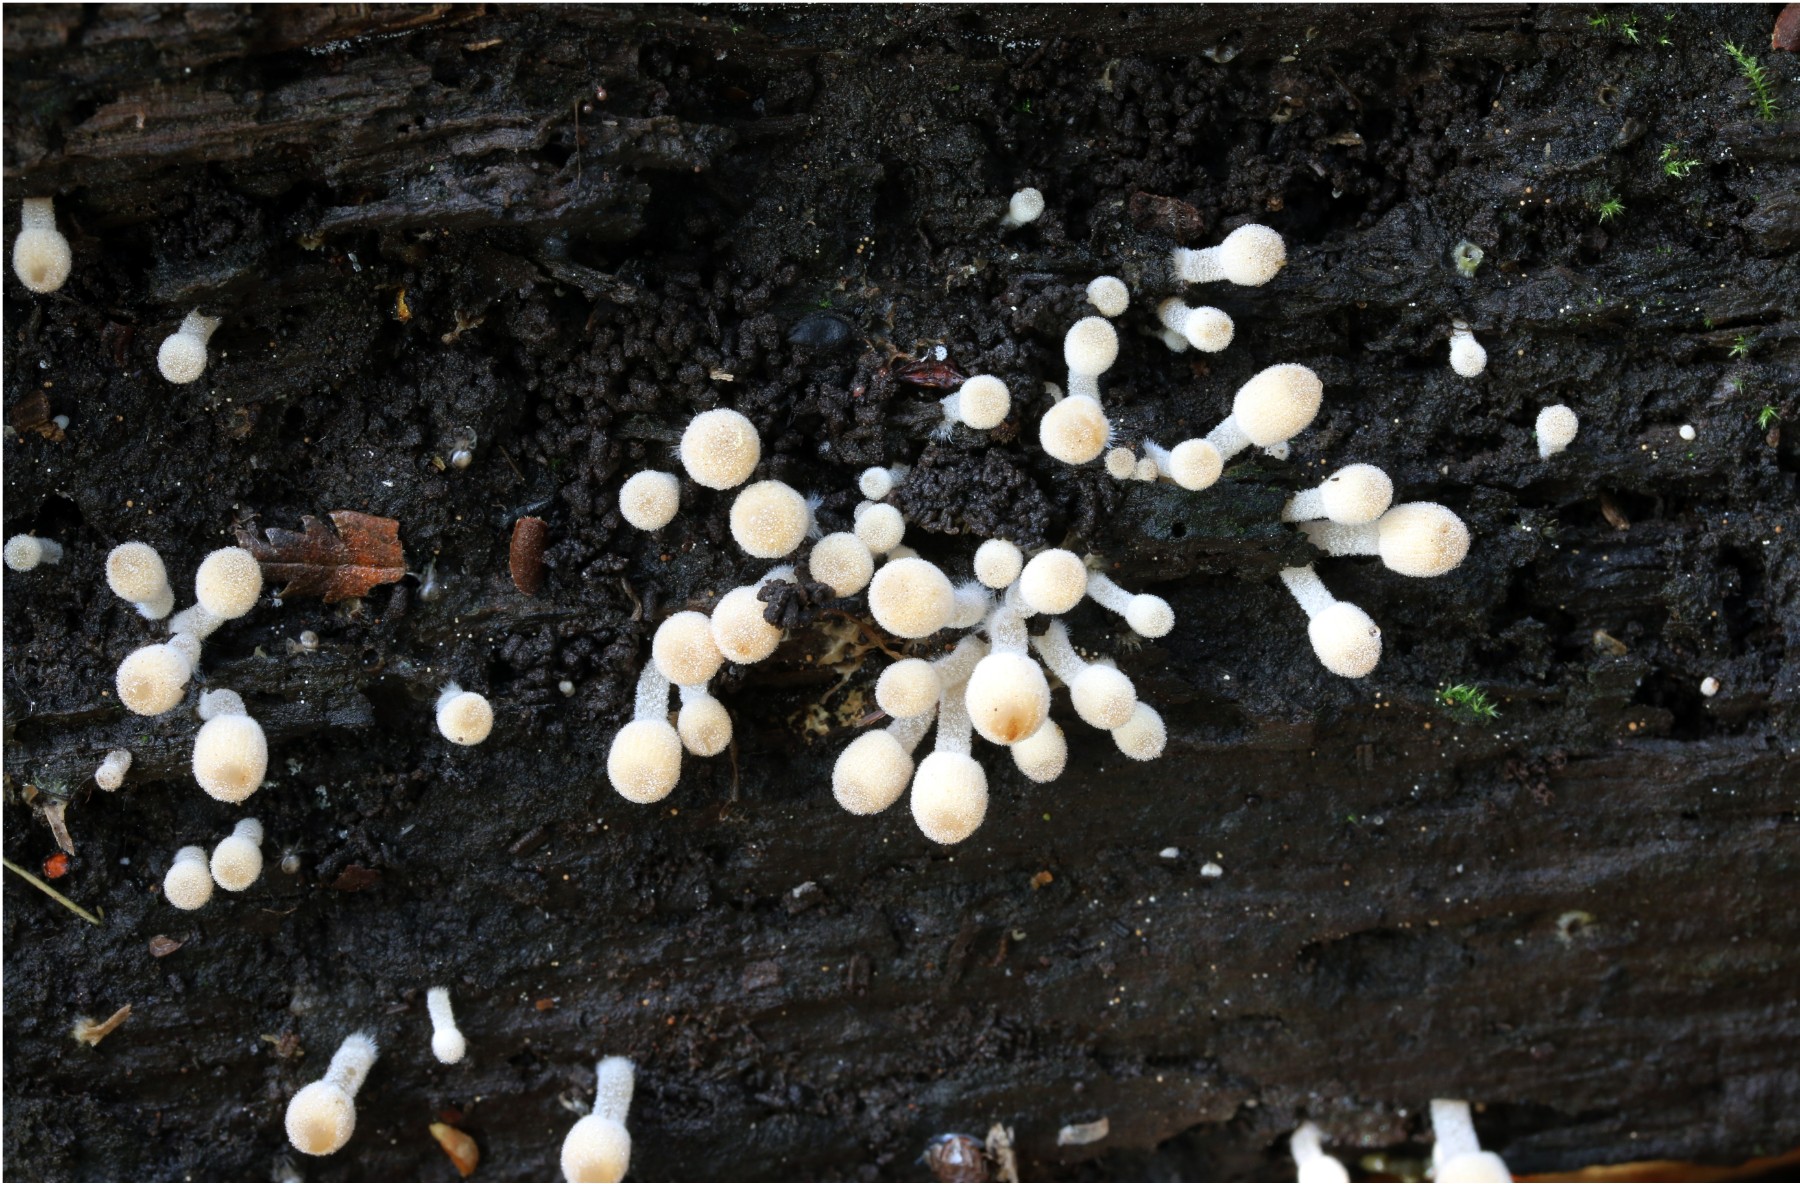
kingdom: Fungi
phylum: Basidiomycota
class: Agaricomycetes
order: Agaricales
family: Psathyrellaceae
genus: Coprinellus
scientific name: Coprinellus disseminatus
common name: bredsået blækhat
